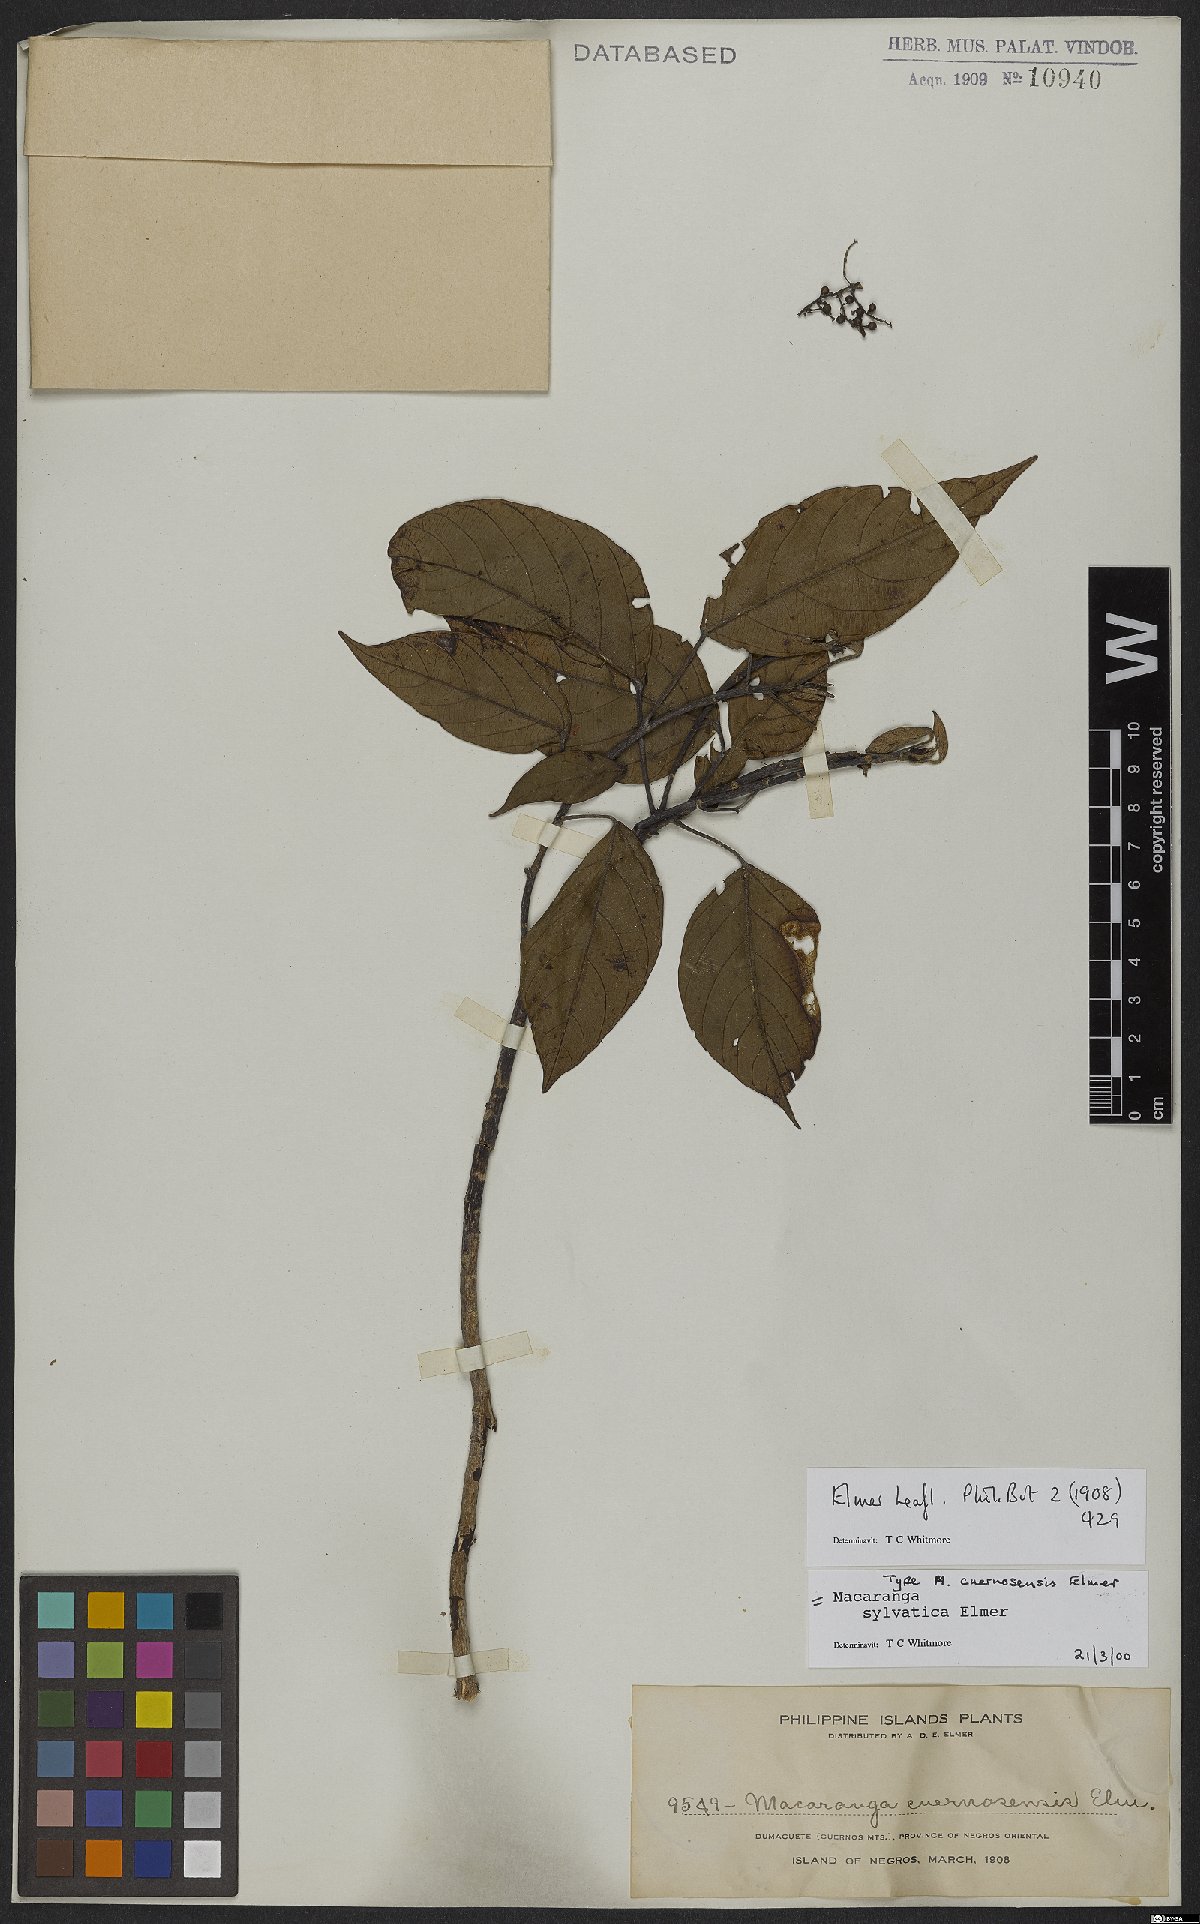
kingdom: Plantae
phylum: Tracheophyta
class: Magnoliopsida
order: Malpighiales
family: Euphorbiaceae
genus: Macaranga
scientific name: Macaranga sylvatica
